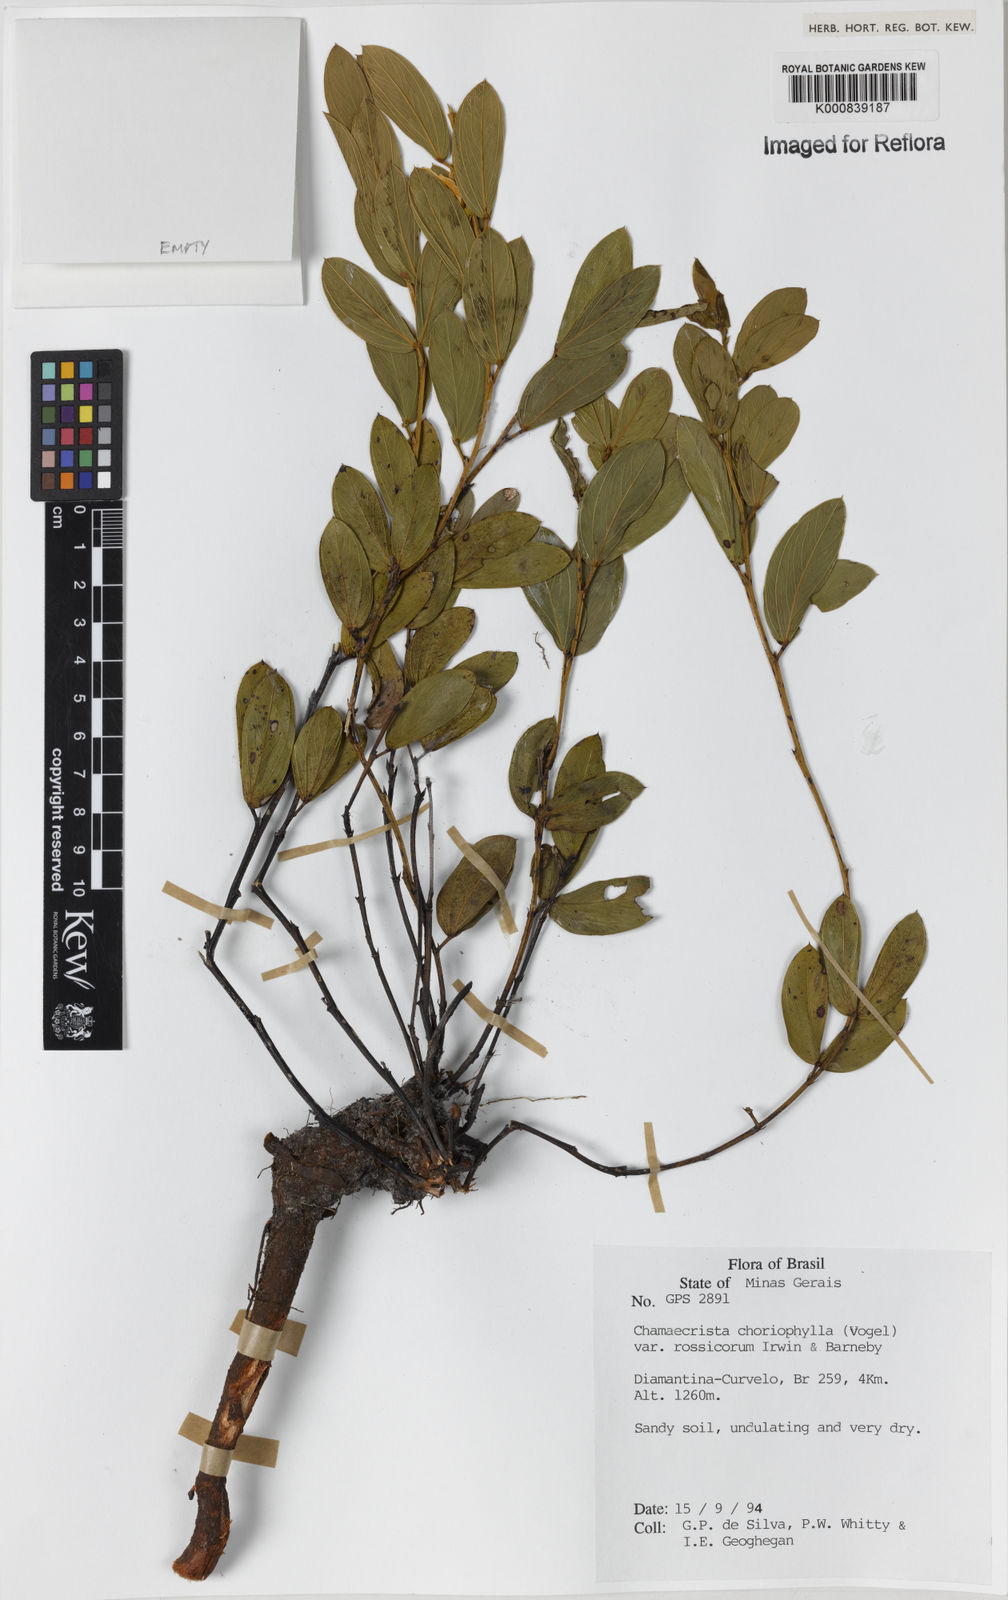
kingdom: Plantae
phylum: Tracheophyta
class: Magnoliopsida
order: Fabales
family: Fabaceae
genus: Chamaecrista
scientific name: Chamaecrista rossicorum
